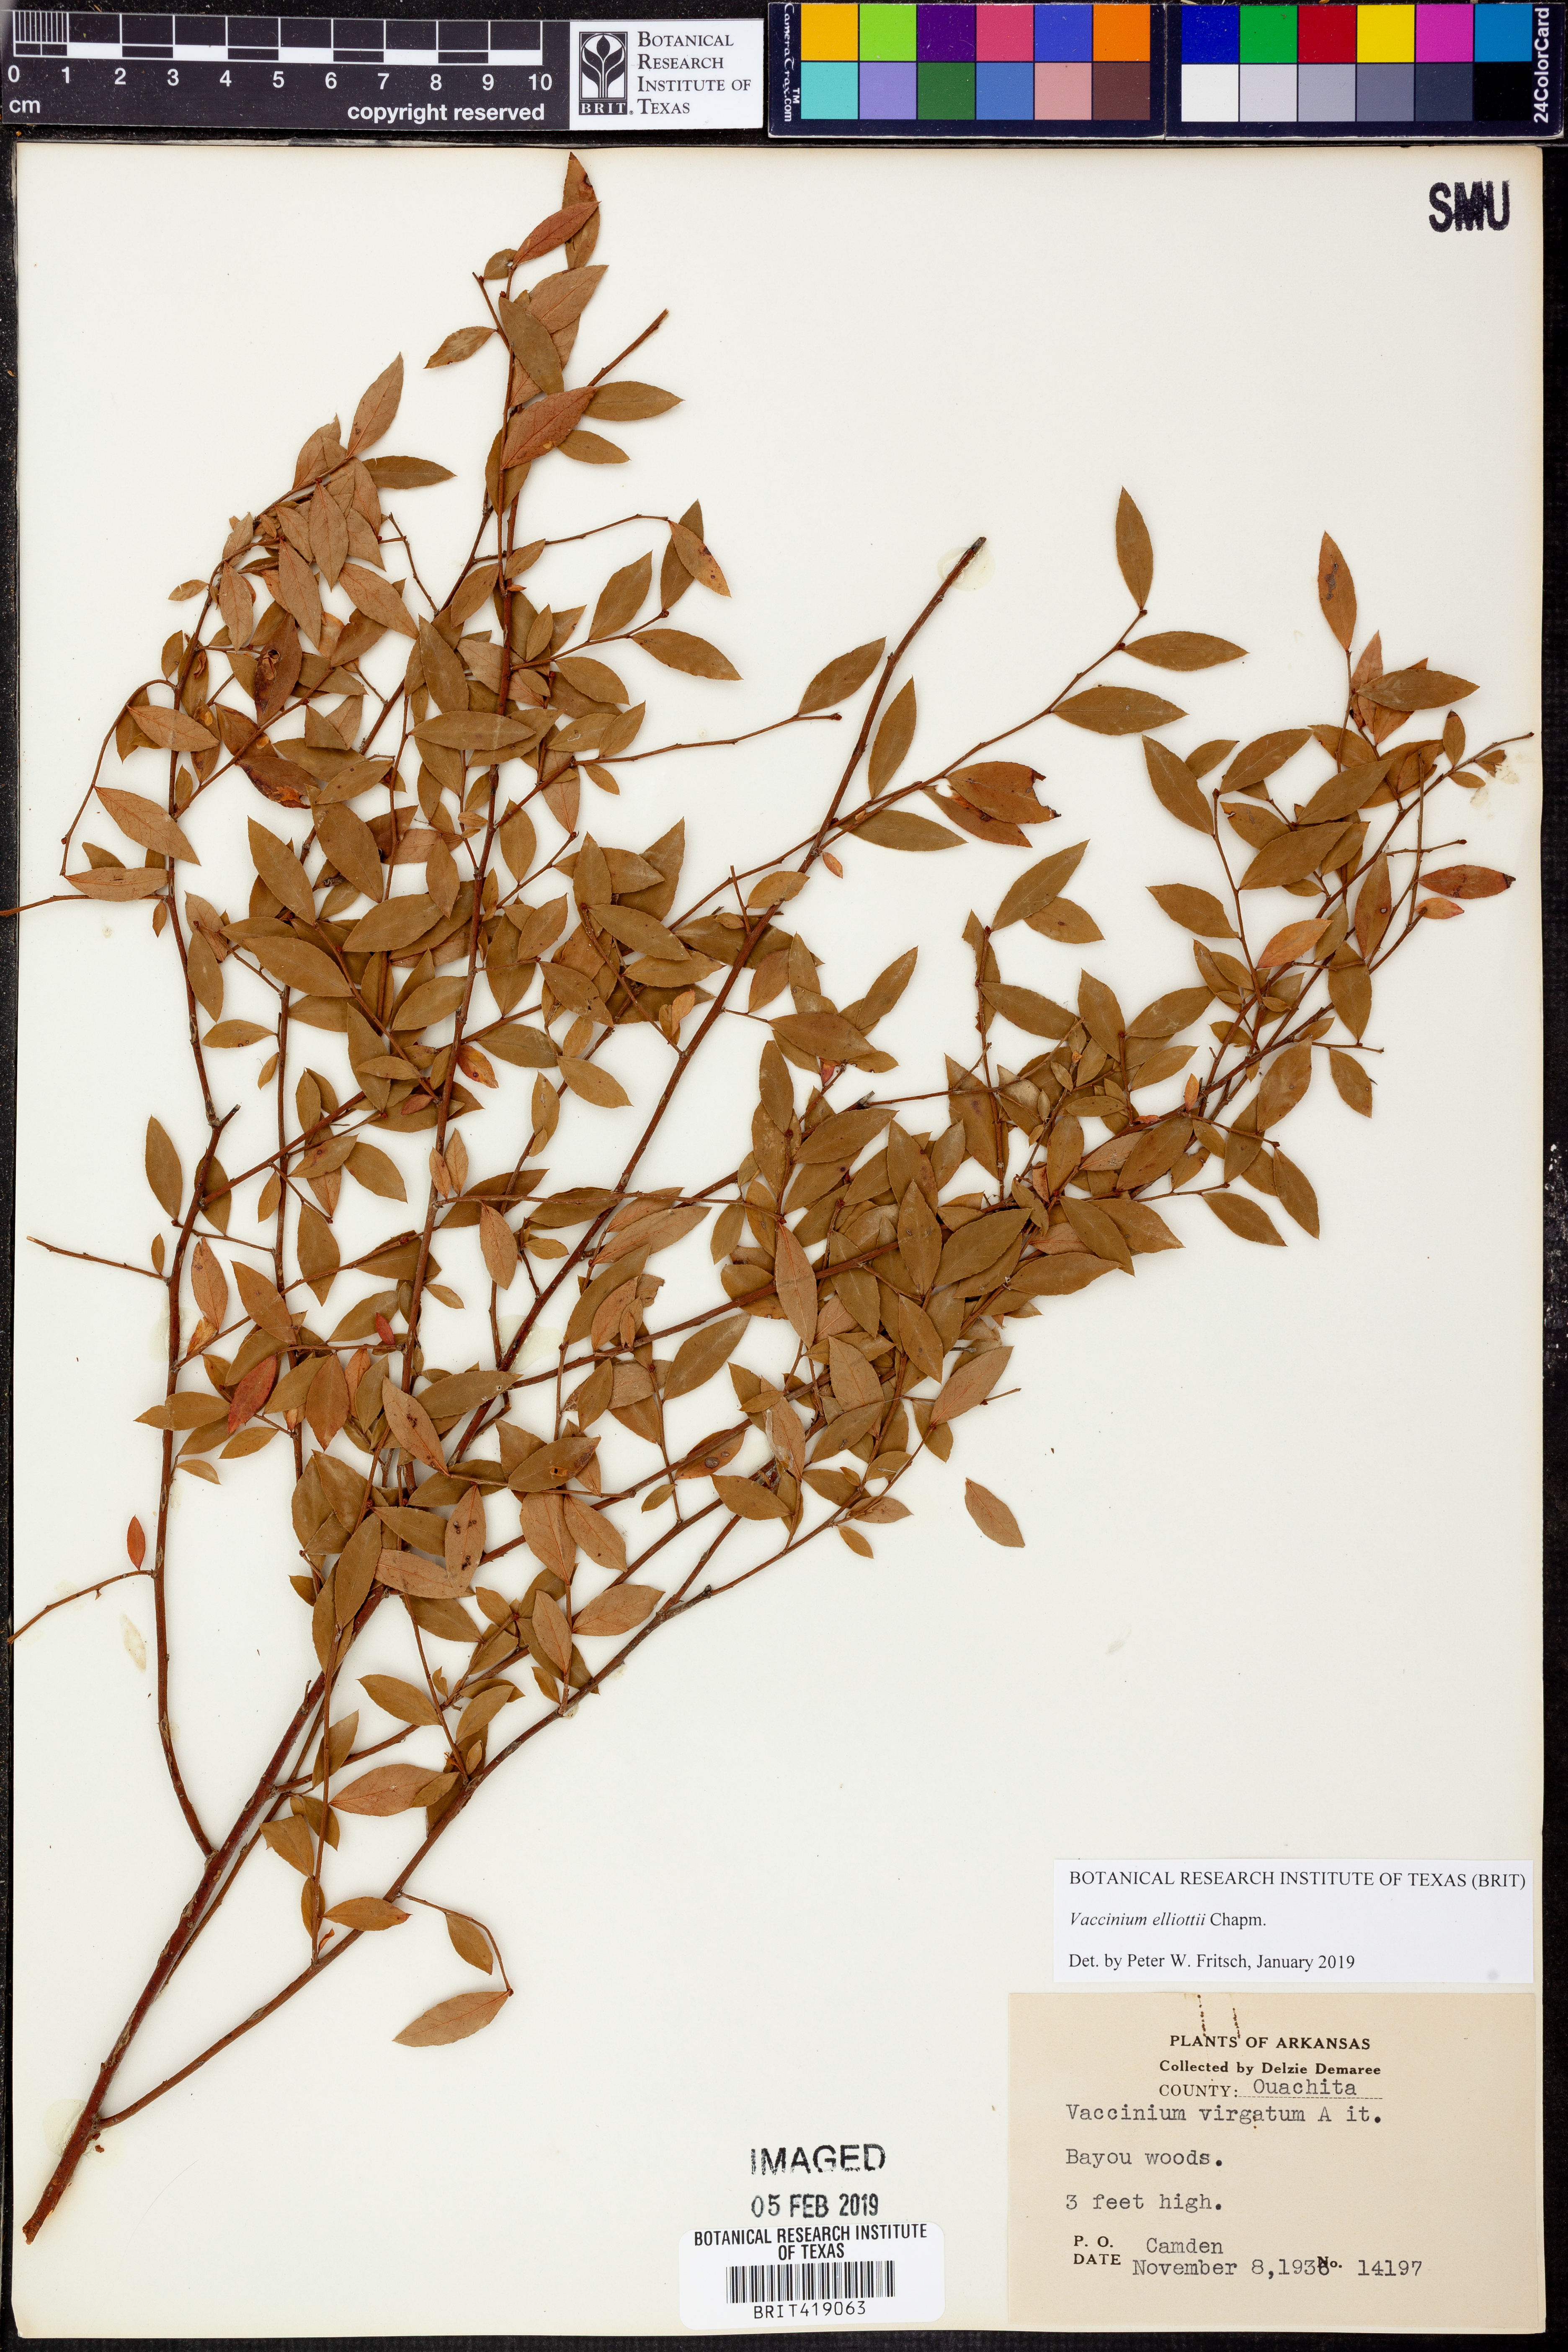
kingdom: Plantae
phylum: Tracheophyta
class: Magnoliopsida
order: Ericales
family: Ericaceae
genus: Vaccinium
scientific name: Vaccinium corymbosum
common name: Blueberry
